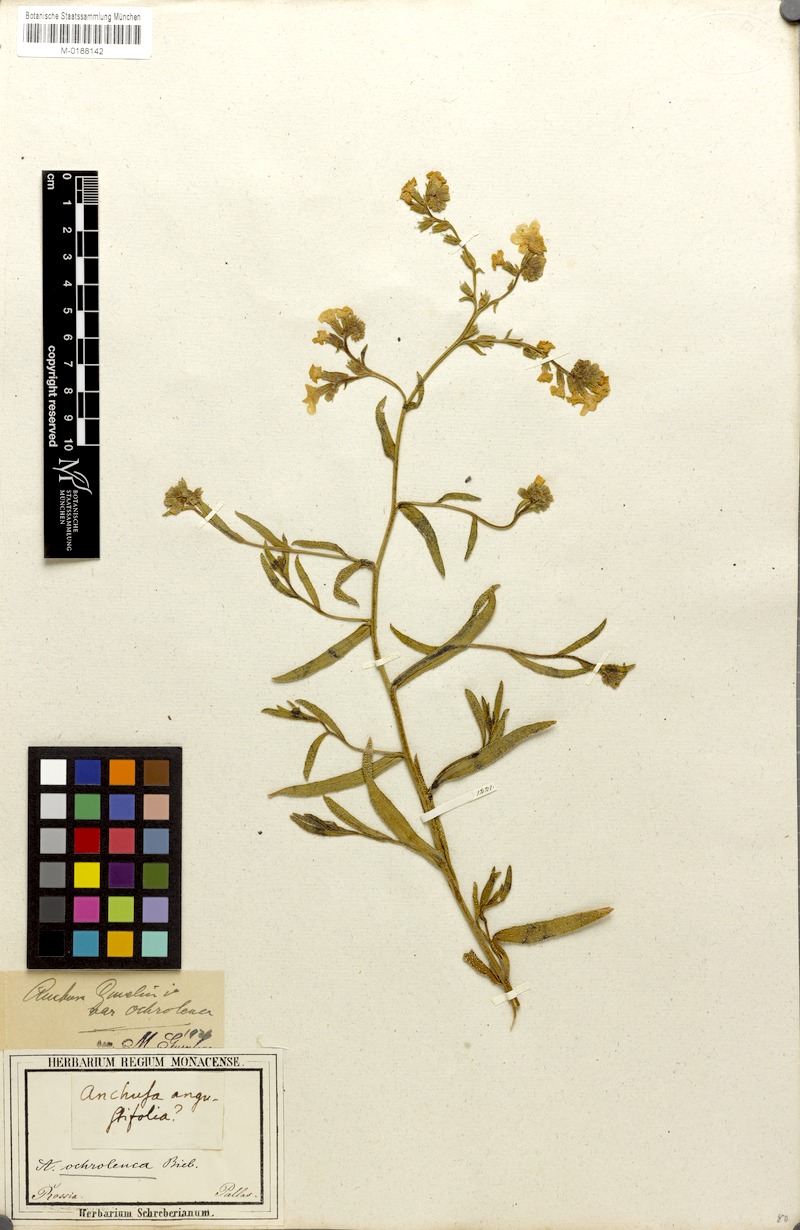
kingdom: Plantae
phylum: Tracheophyta
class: Magnoliopsida
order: Boraginales
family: Boraginaceae
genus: Anchusa
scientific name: Anchusa ochroleuca
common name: Yellow alkanet
